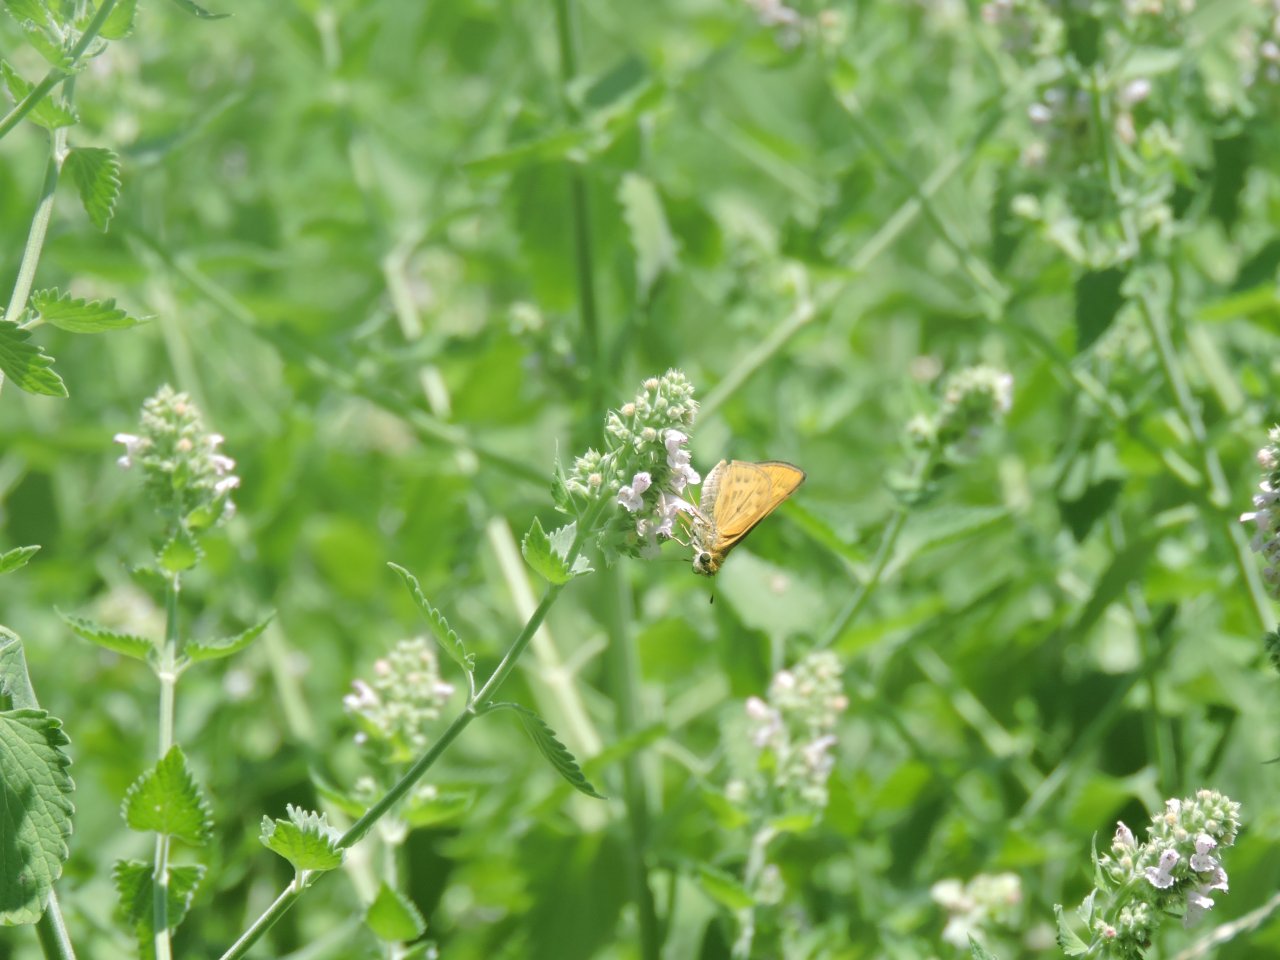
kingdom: Animalia
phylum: Arthropoda
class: Insecta
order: Lepidoptera
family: Hesperiidae
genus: Hylephila
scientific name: Hylephila phyleus
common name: Fiery Skipper
